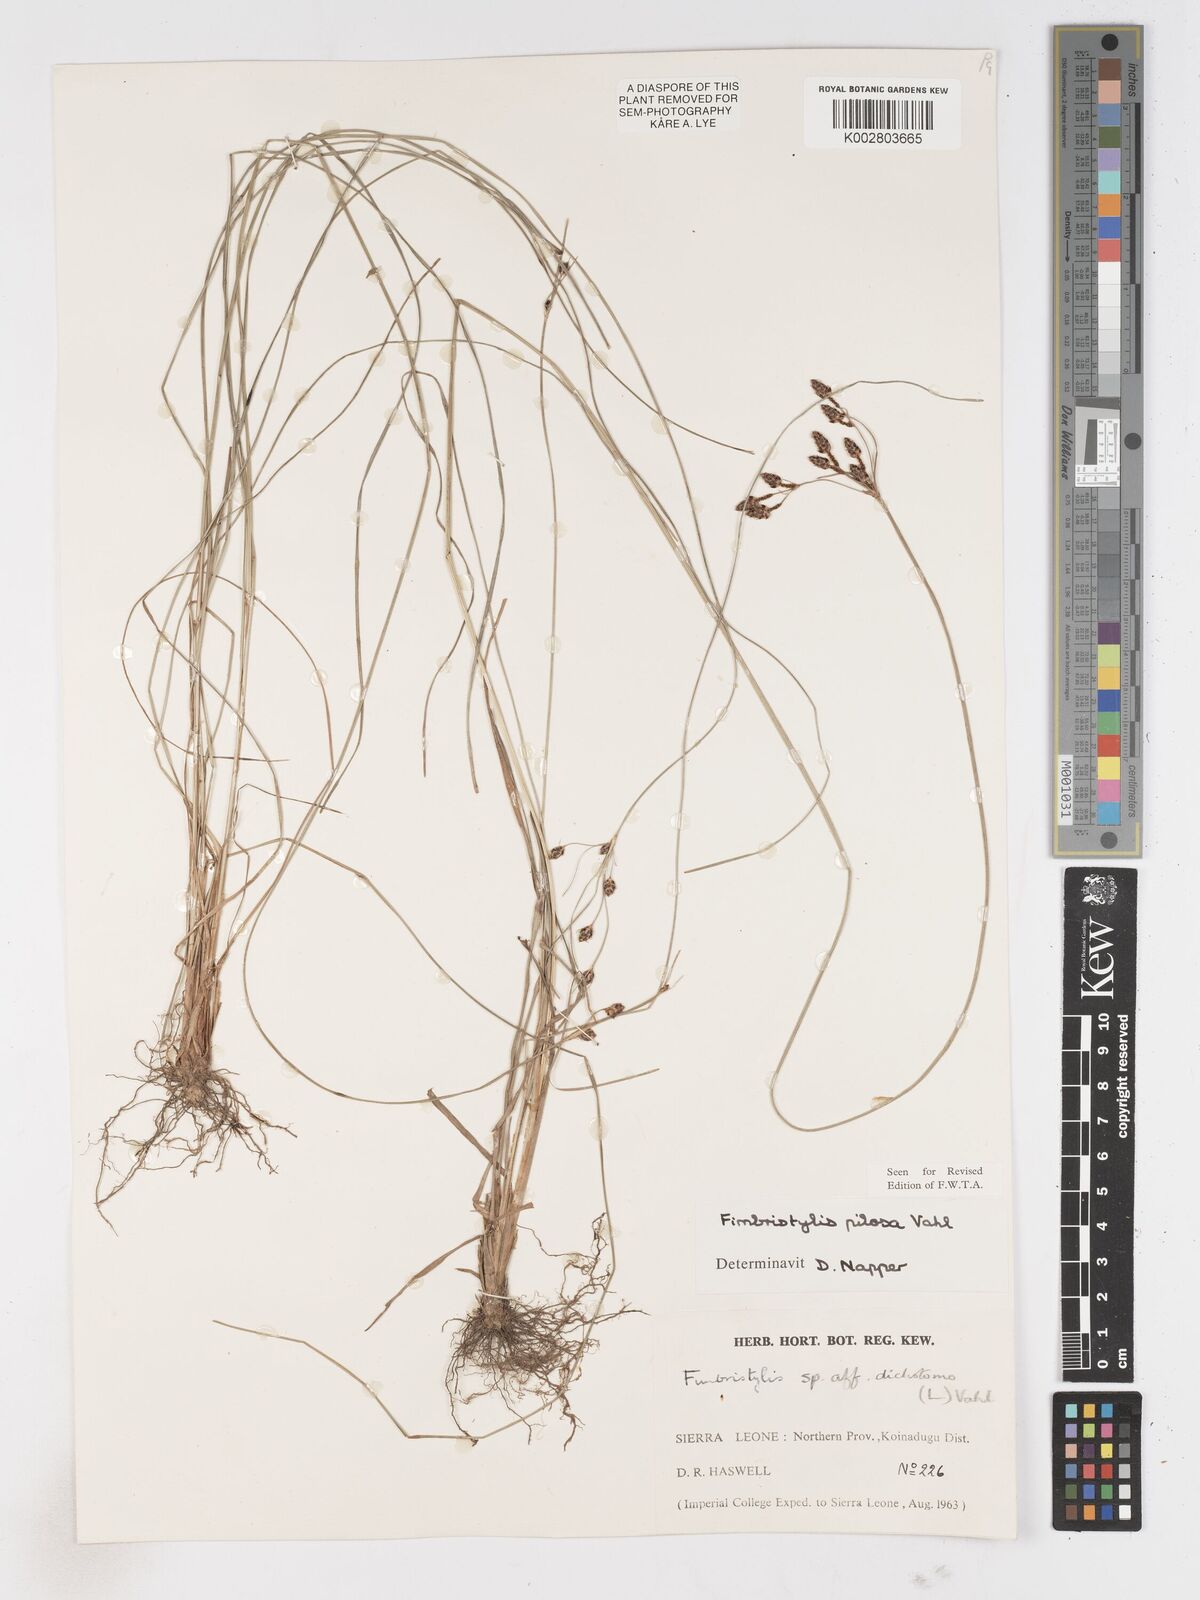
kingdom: Plantae
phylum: Tracheophyta
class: Liliopsida
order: Poales
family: Cyperaceae
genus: Fimbristylis
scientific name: Fimbristylis pilosa
